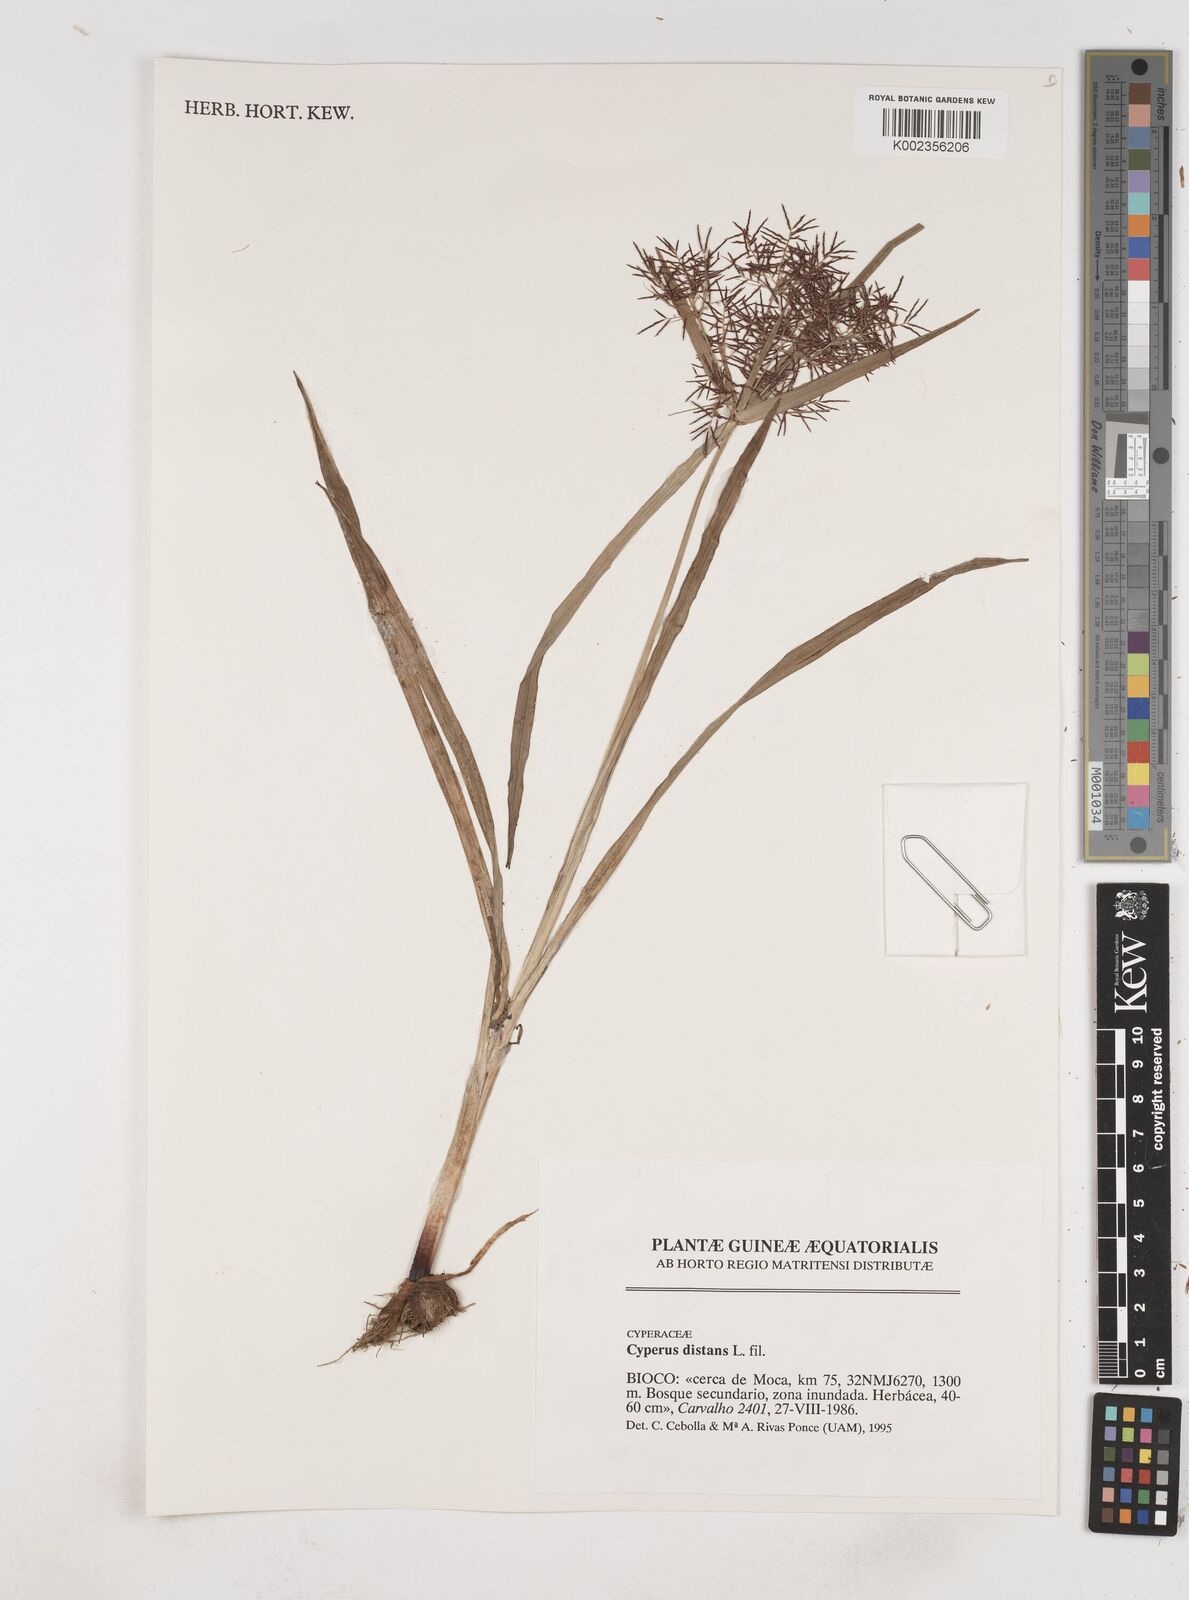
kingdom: Plantae
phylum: Tracheophyta
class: Liliopsida
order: Poales
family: Cyperaceae
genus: Cyperus
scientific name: Cyperus distans
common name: Slender cyperus
